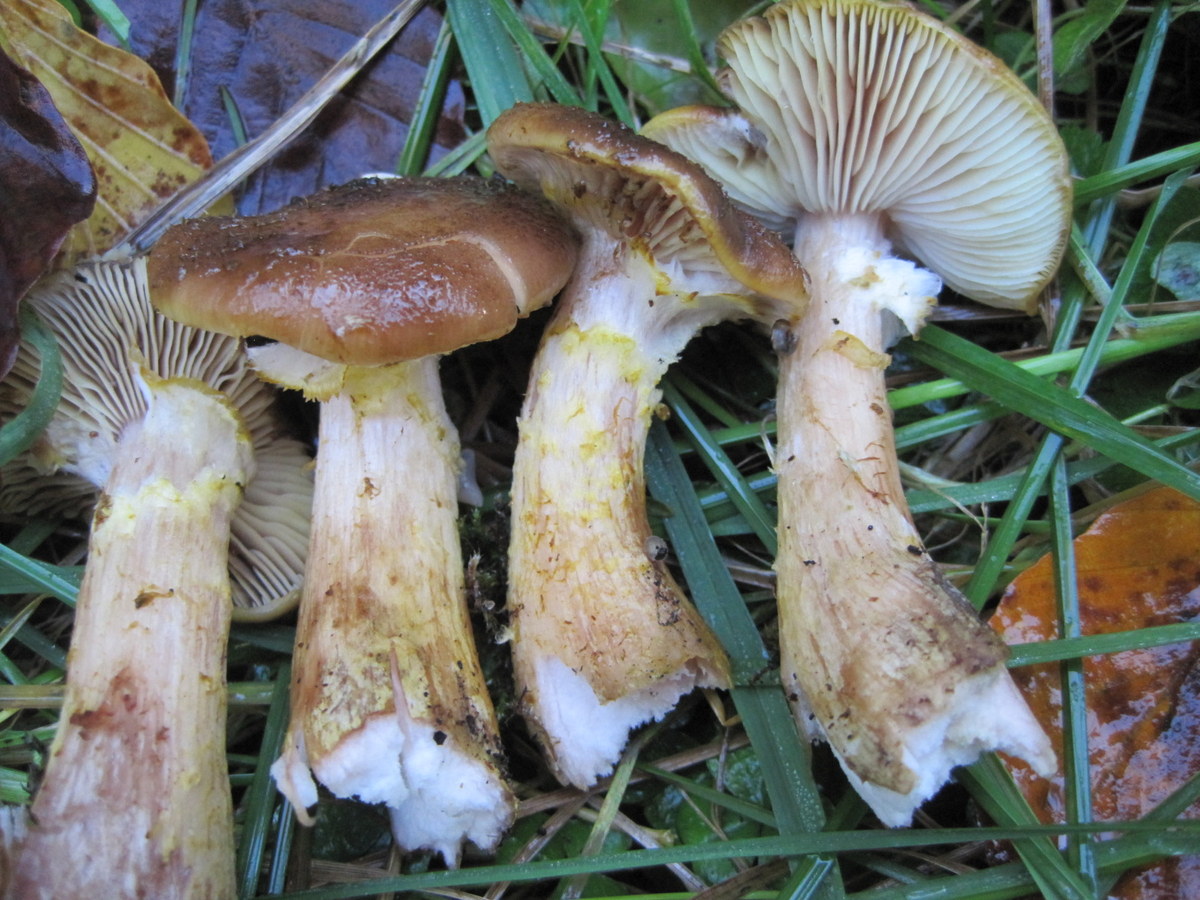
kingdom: Fungi
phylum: Basidiomycota
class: Agaricomycetes
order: Agaricales
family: Physalacriaceae
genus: Armillaria
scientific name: Armillaria lutea
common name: køllestokket honningsvamp
